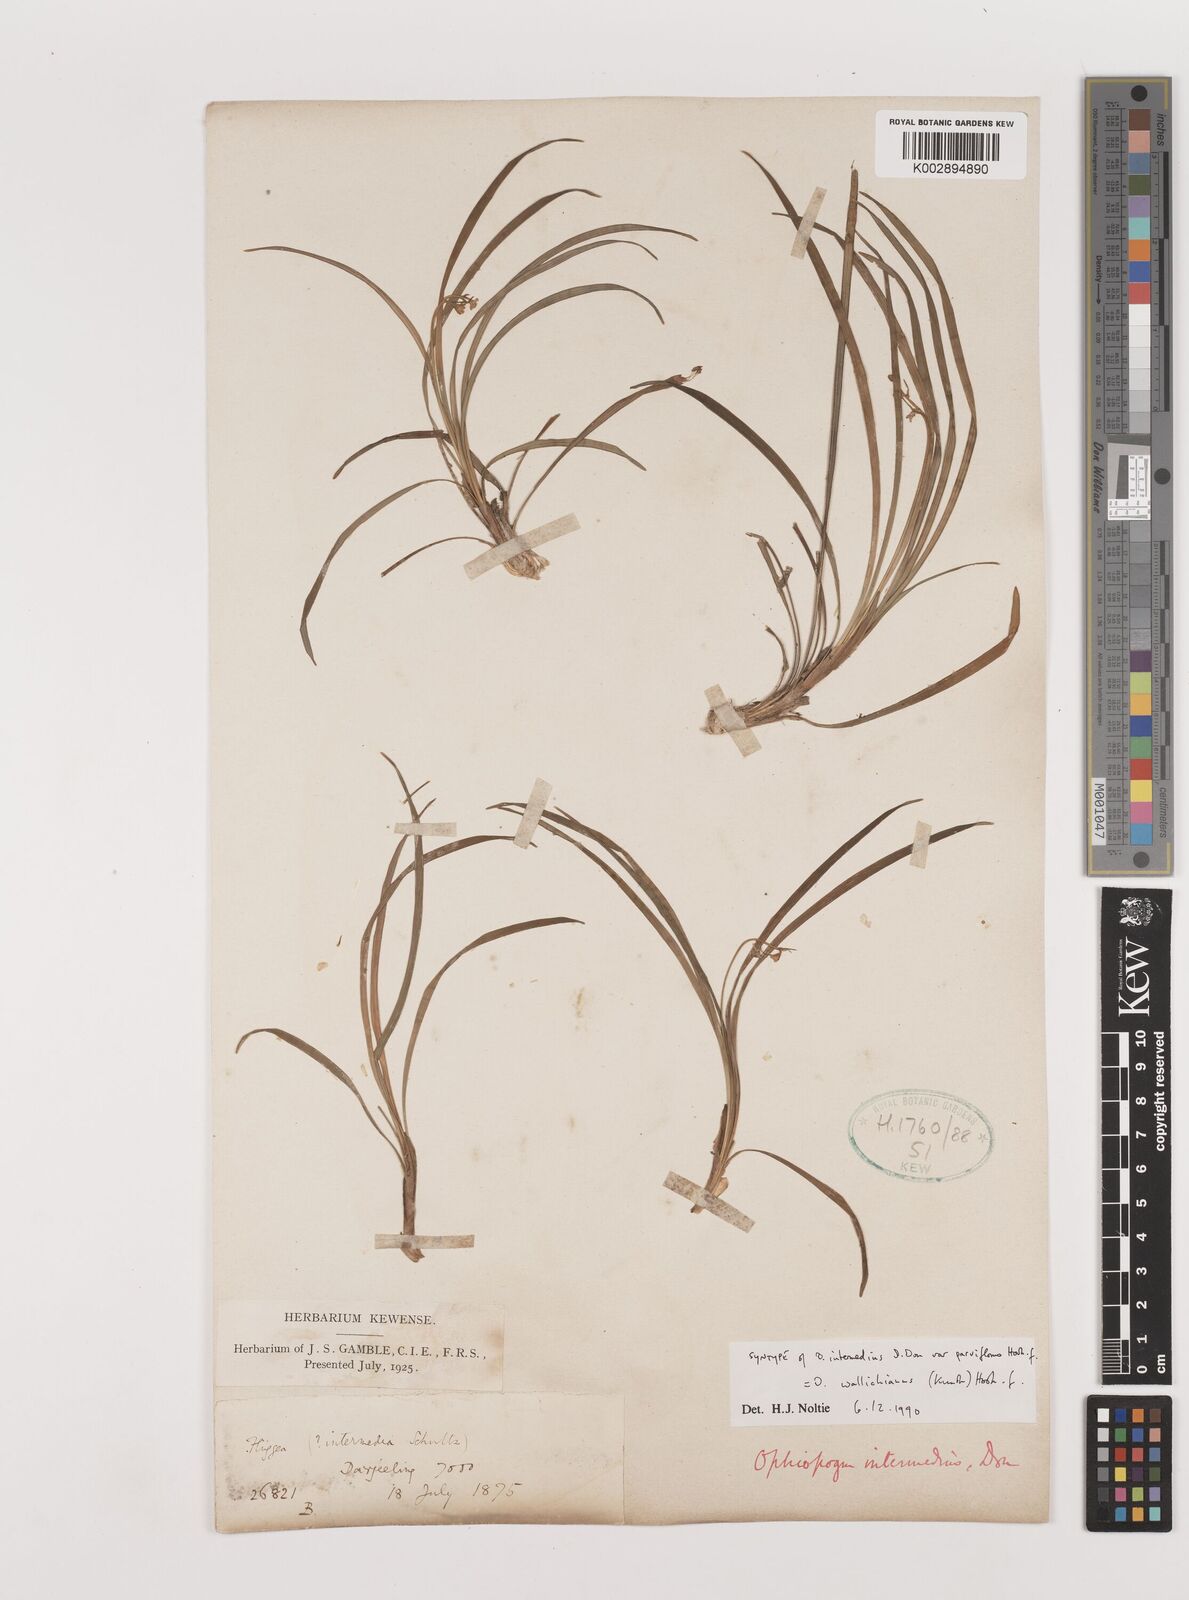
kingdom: Plantae
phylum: Tracheophyta
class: Liliopsida
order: Asparagales
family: Asparagaceae
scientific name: Asparagaceae
